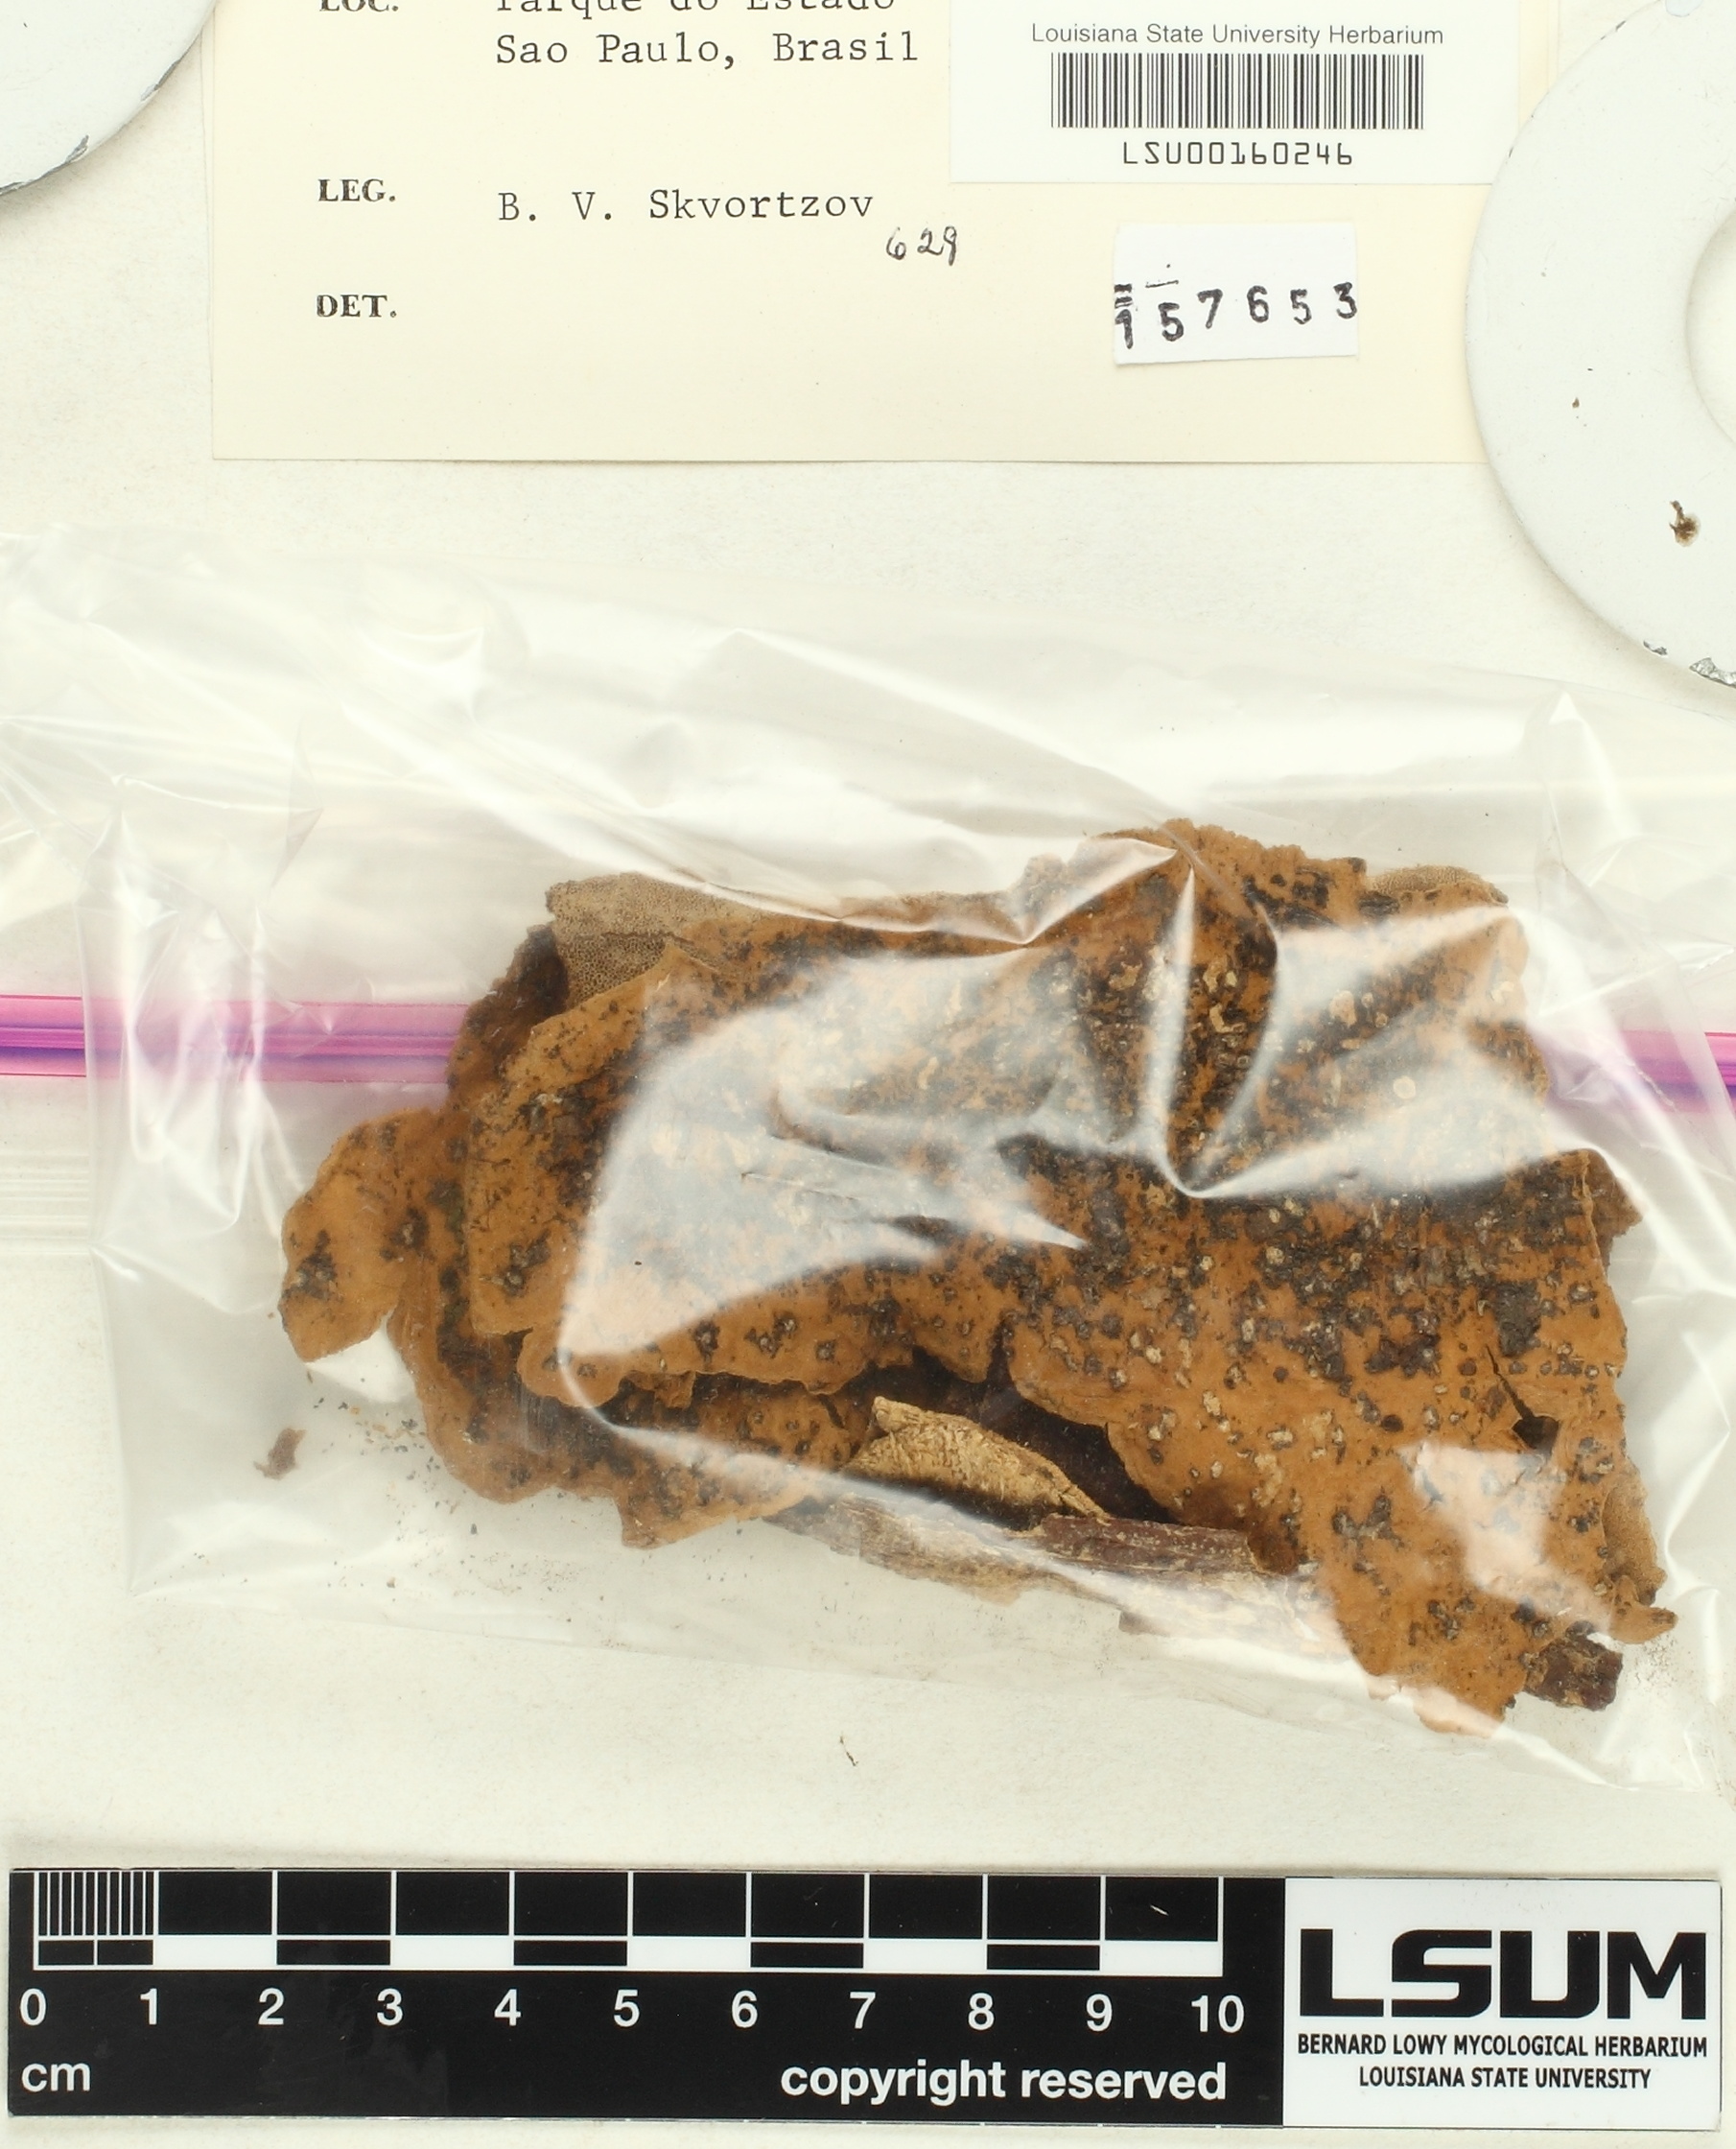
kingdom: Fungi
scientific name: Fungi
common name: Fungi
